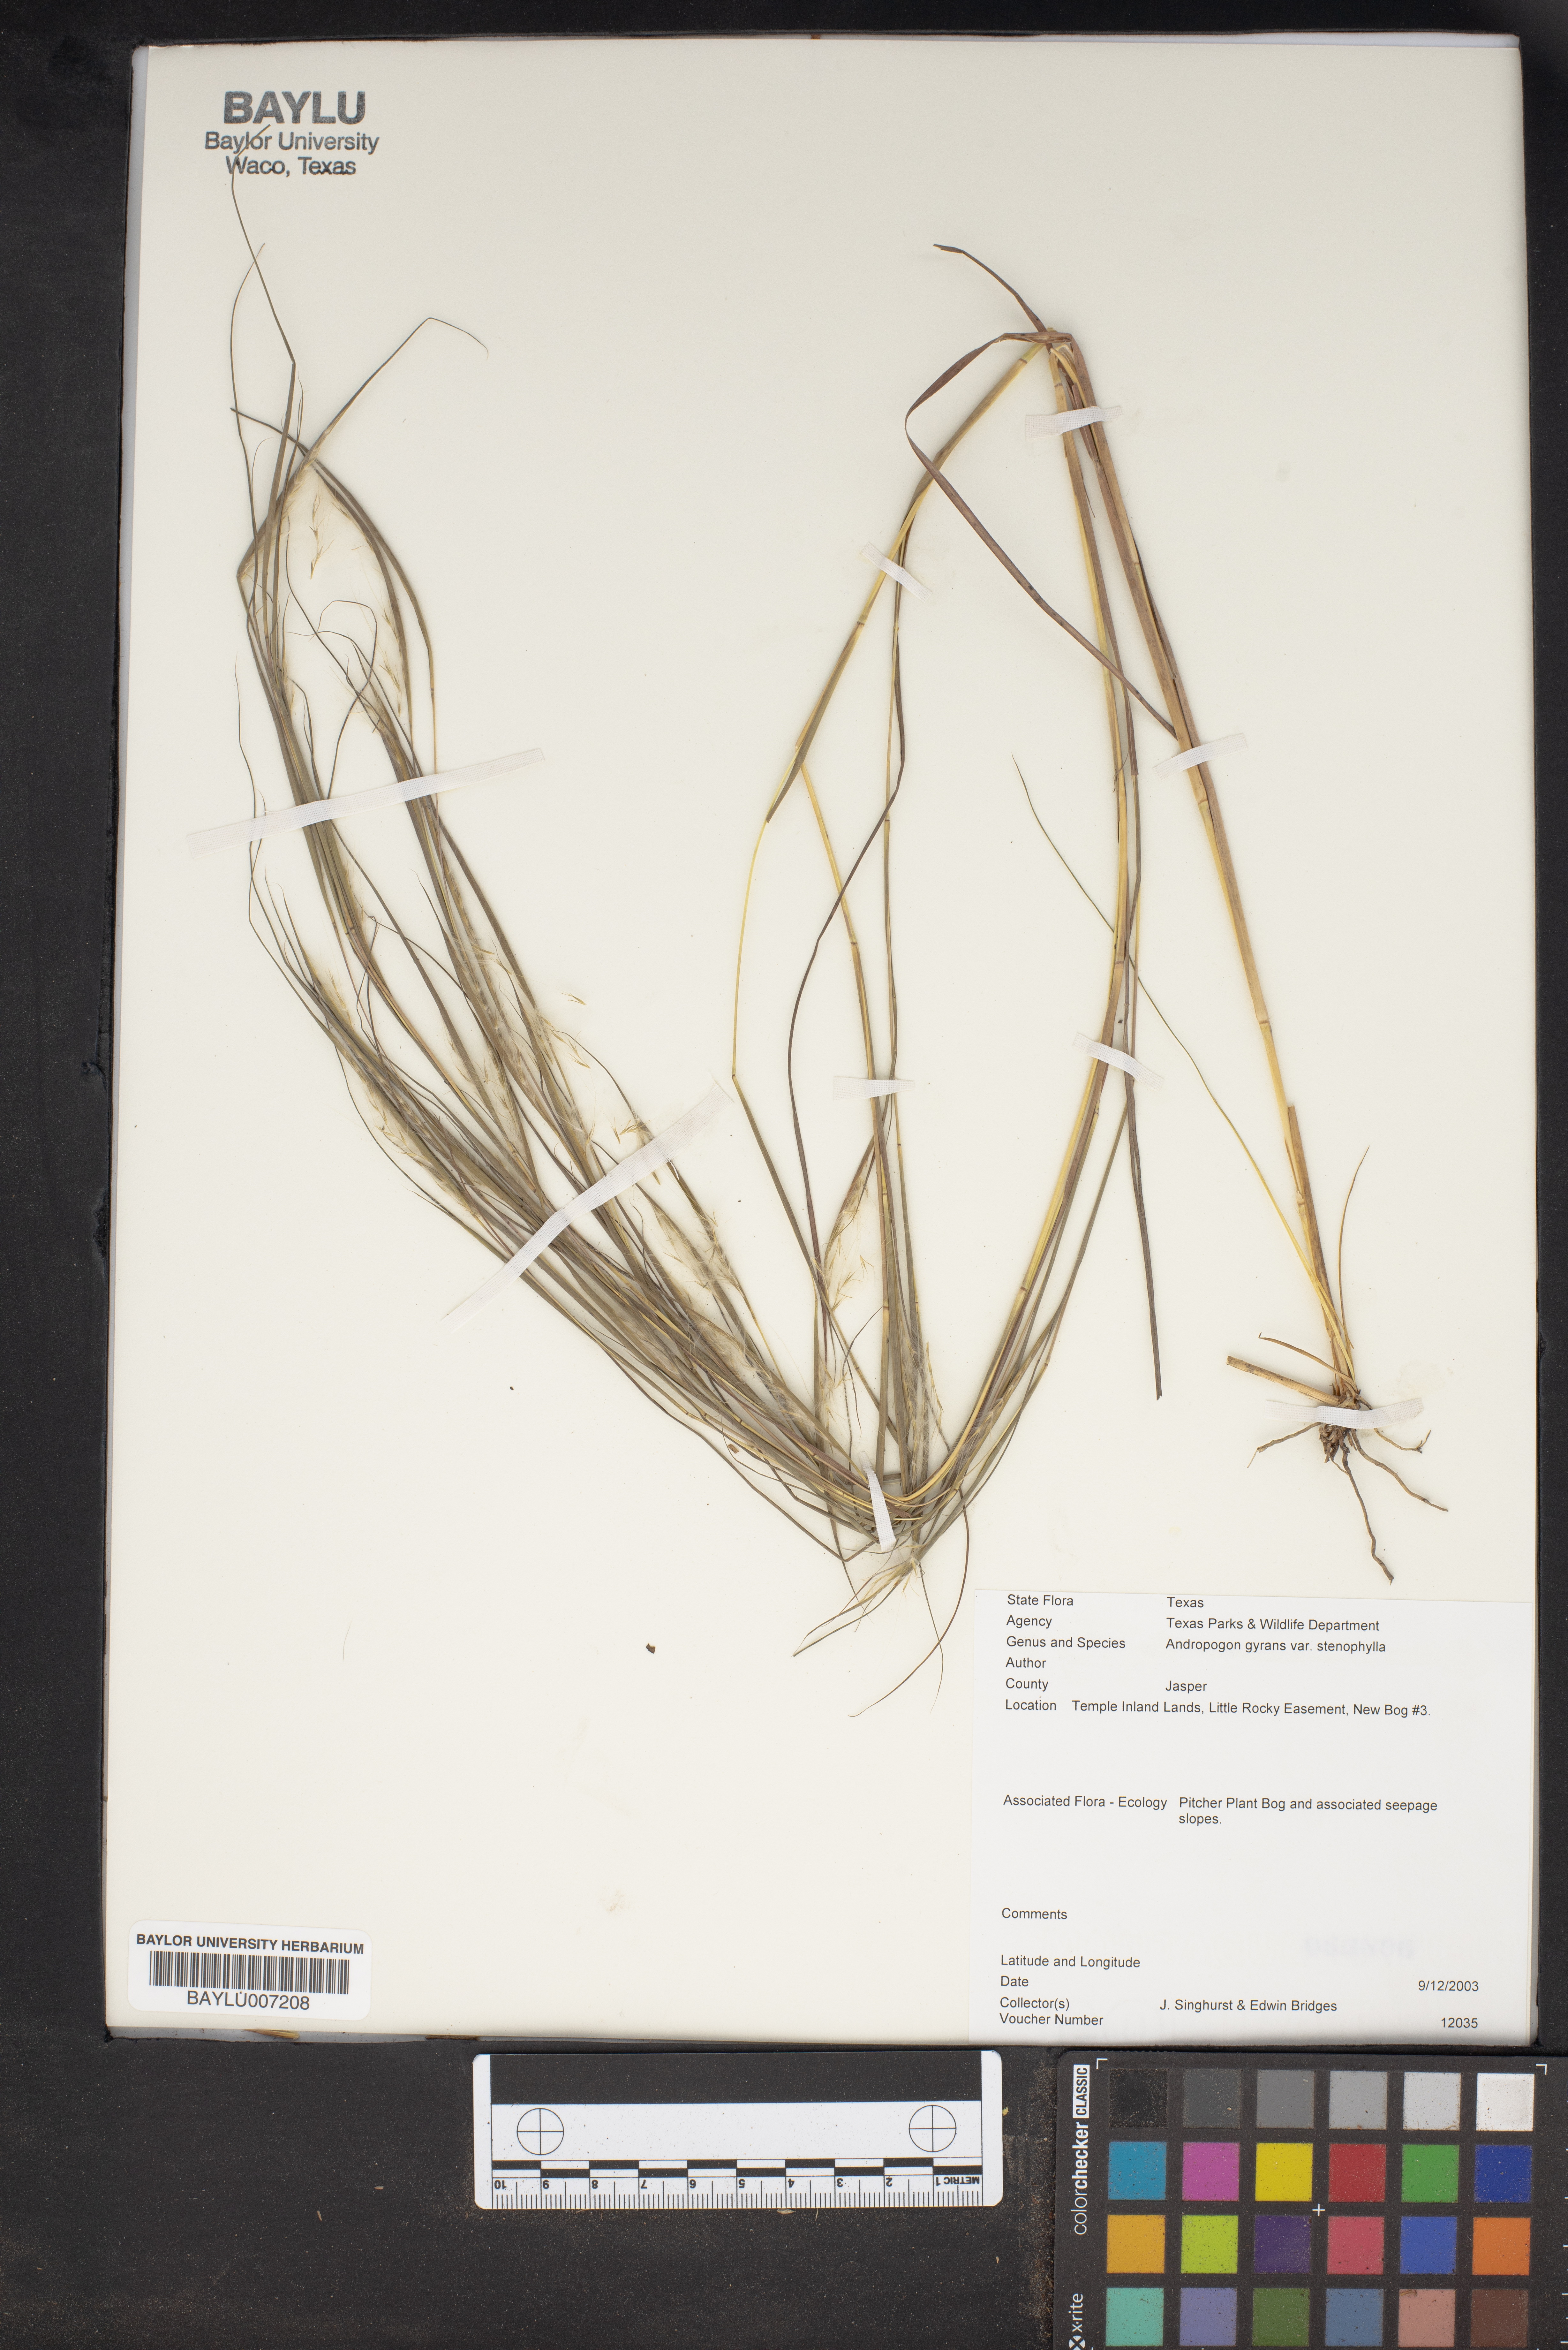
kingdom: Plantae
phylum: Tracheophyta
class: Liliopsida
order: Poales
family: Poaceae
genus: Andropogon
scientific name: Andropogon perangustatus
